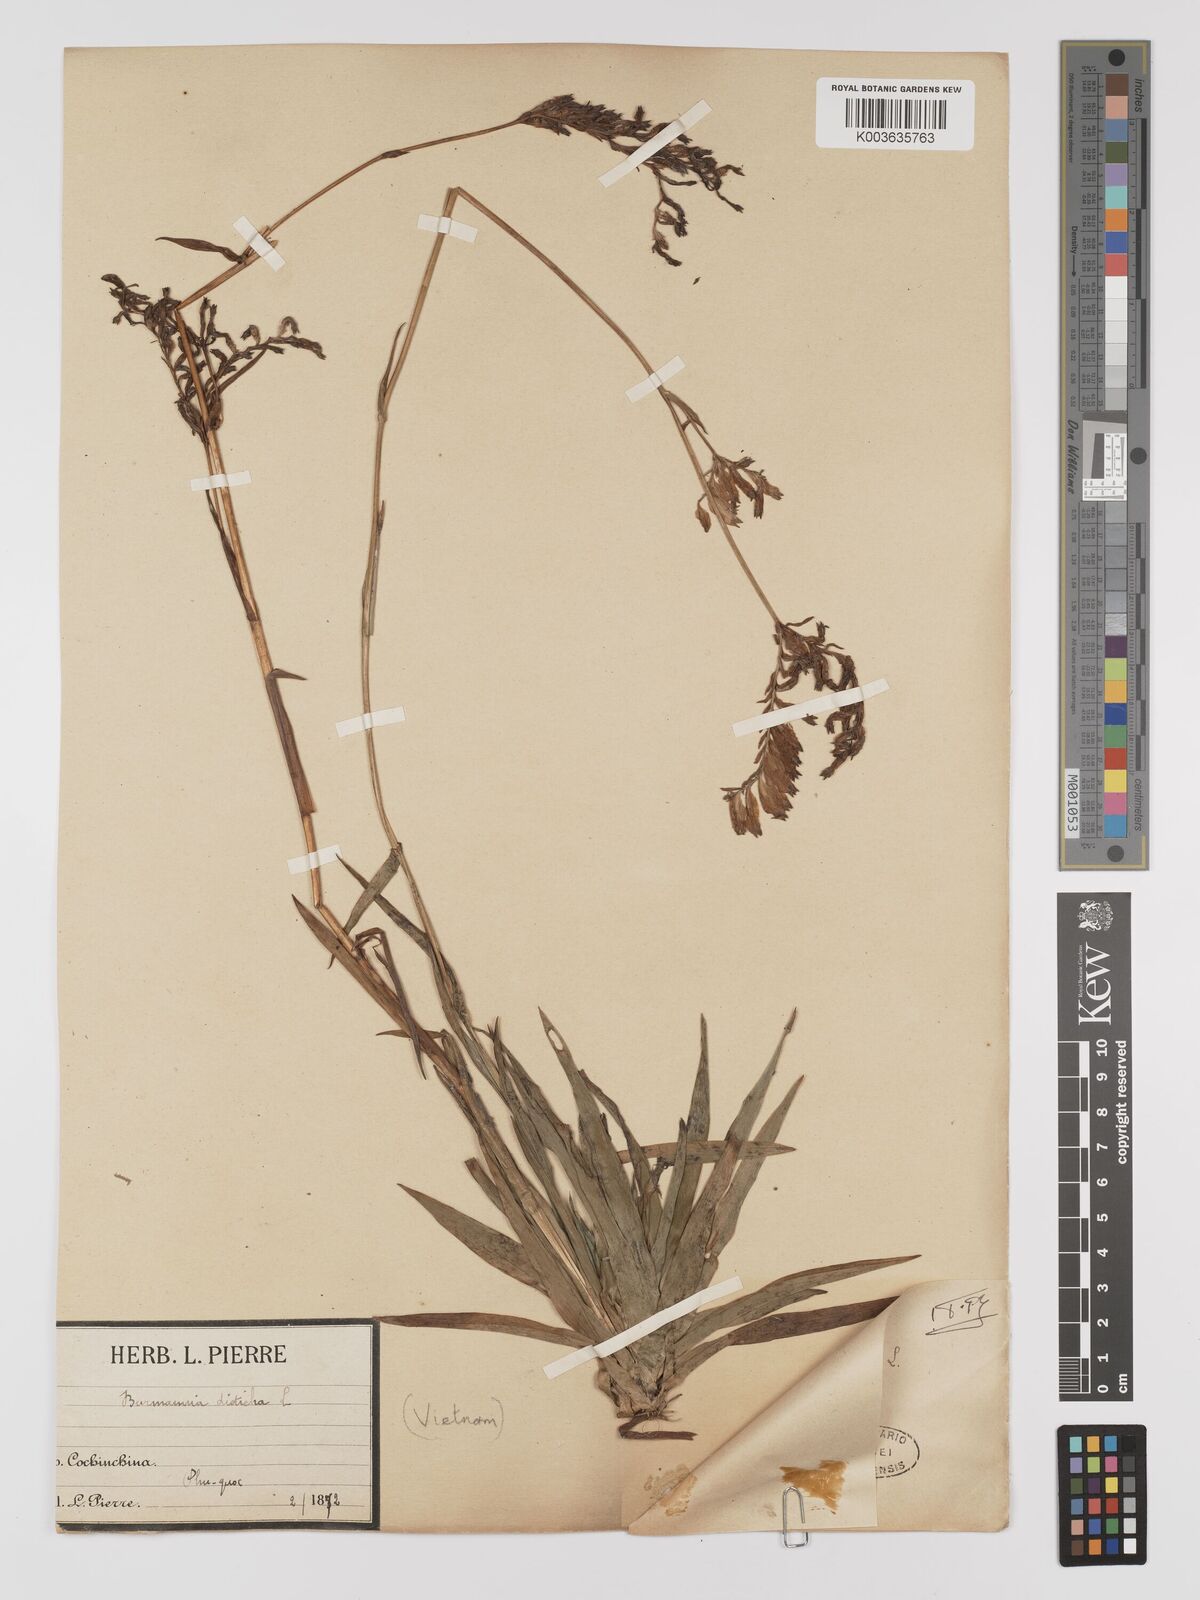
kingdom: Plantae
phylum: Tracheophyta
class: Liliopsida
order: Dioscoreales
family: Burmanniaceae
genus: Burmannia
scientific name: Burmannia disticha
